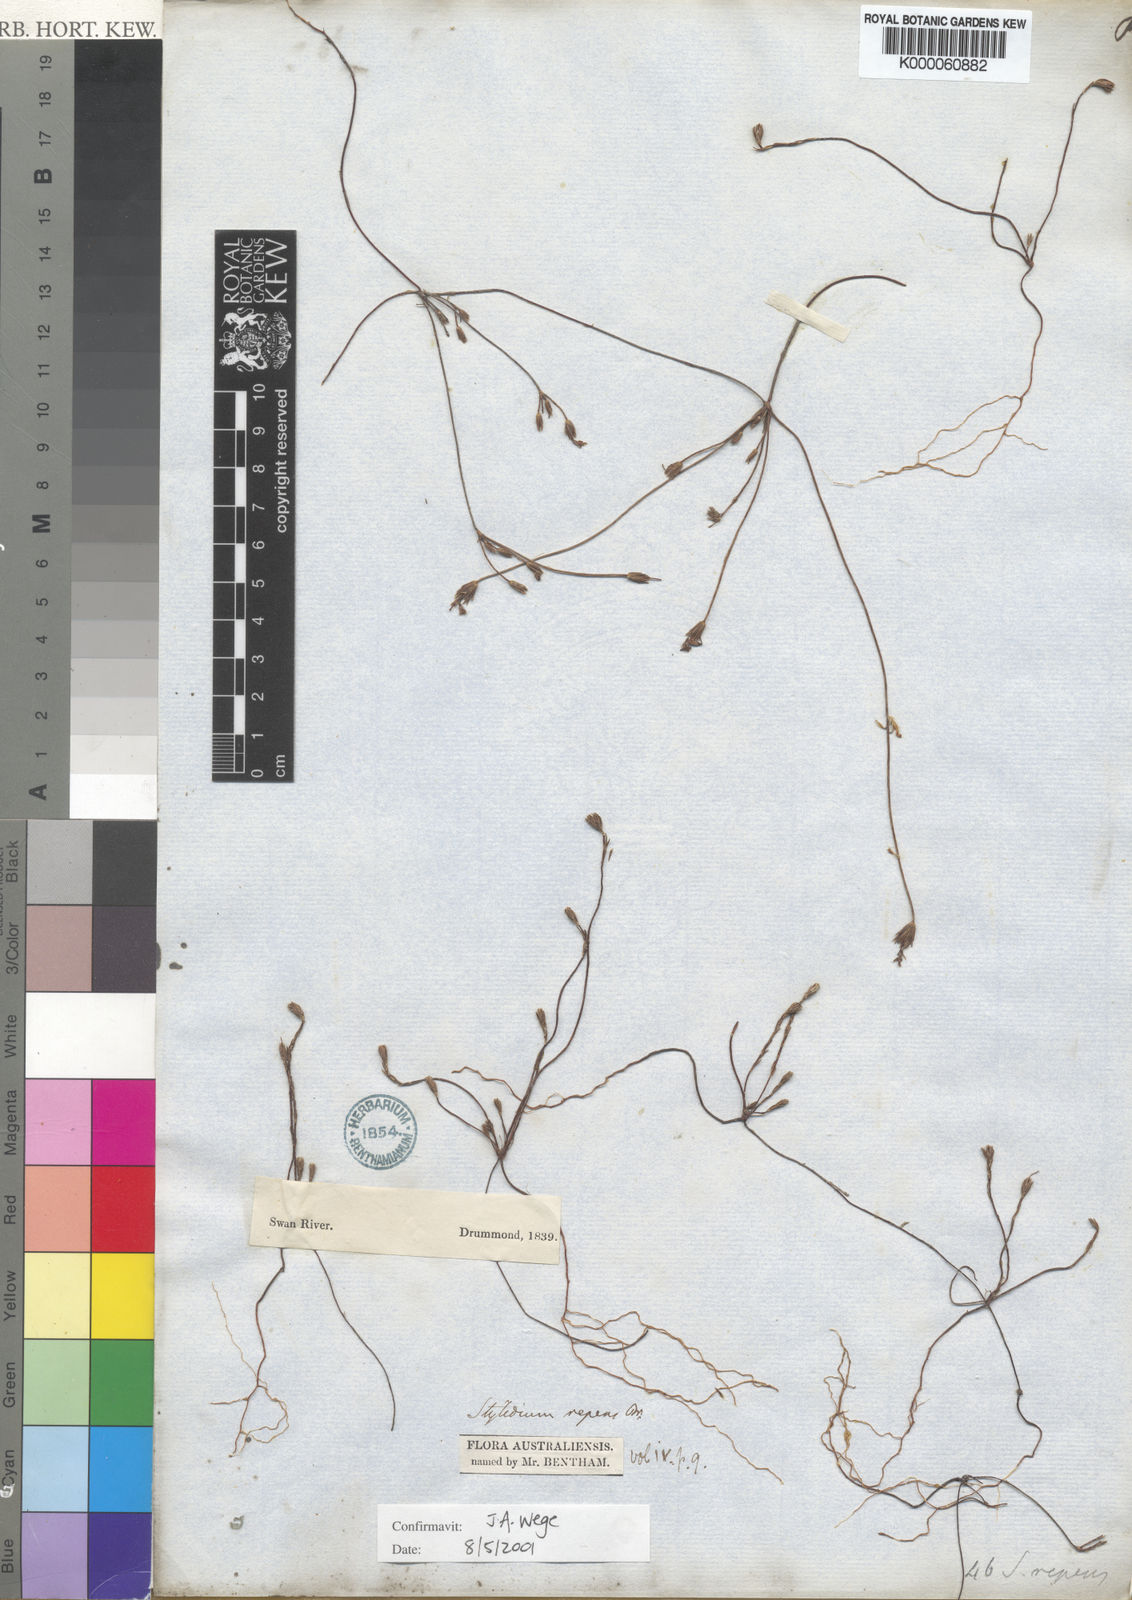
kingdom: Plantae
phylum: Tracheophyta
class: Magnoliopsida
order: Asterales
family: Stylidiaceae
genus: Stylidium
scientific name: Stylidium repens
